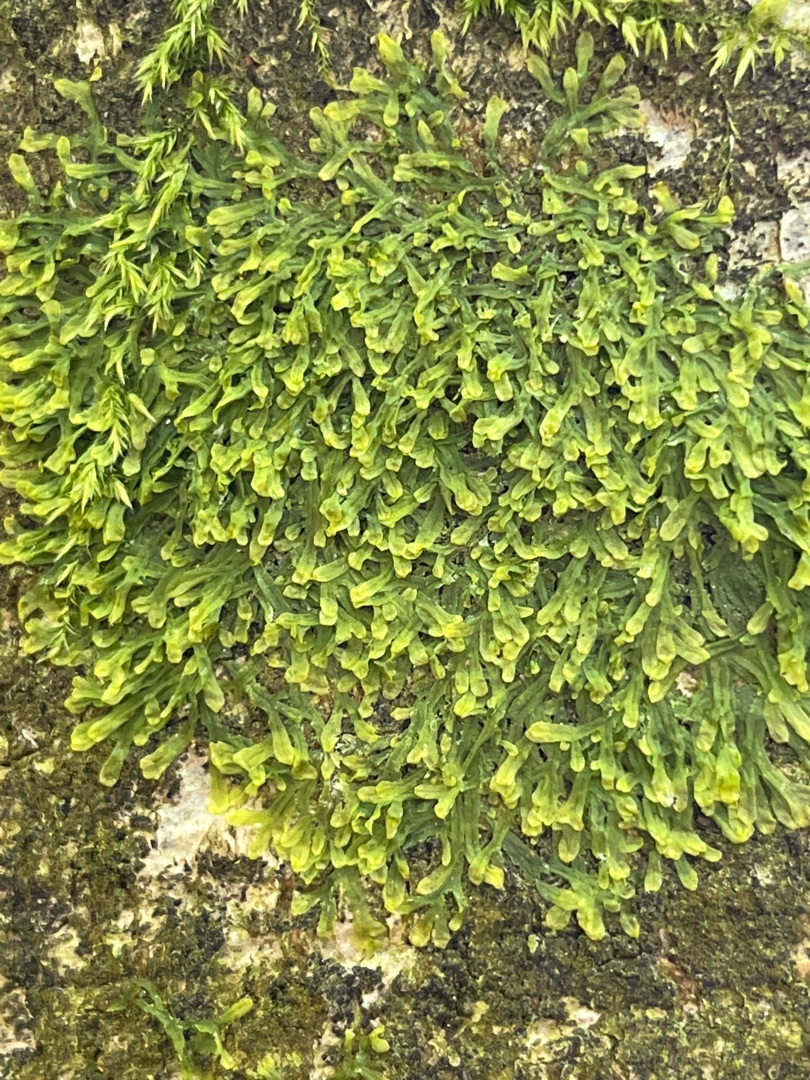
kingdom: Plantae
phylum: Marchantiophyta
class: Jungermanniopsida
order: Metzgeriales
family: Metzgeriaceae
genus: Metzgeria
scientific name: Metzgeria furcata
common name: Almindelig gaffelløv
